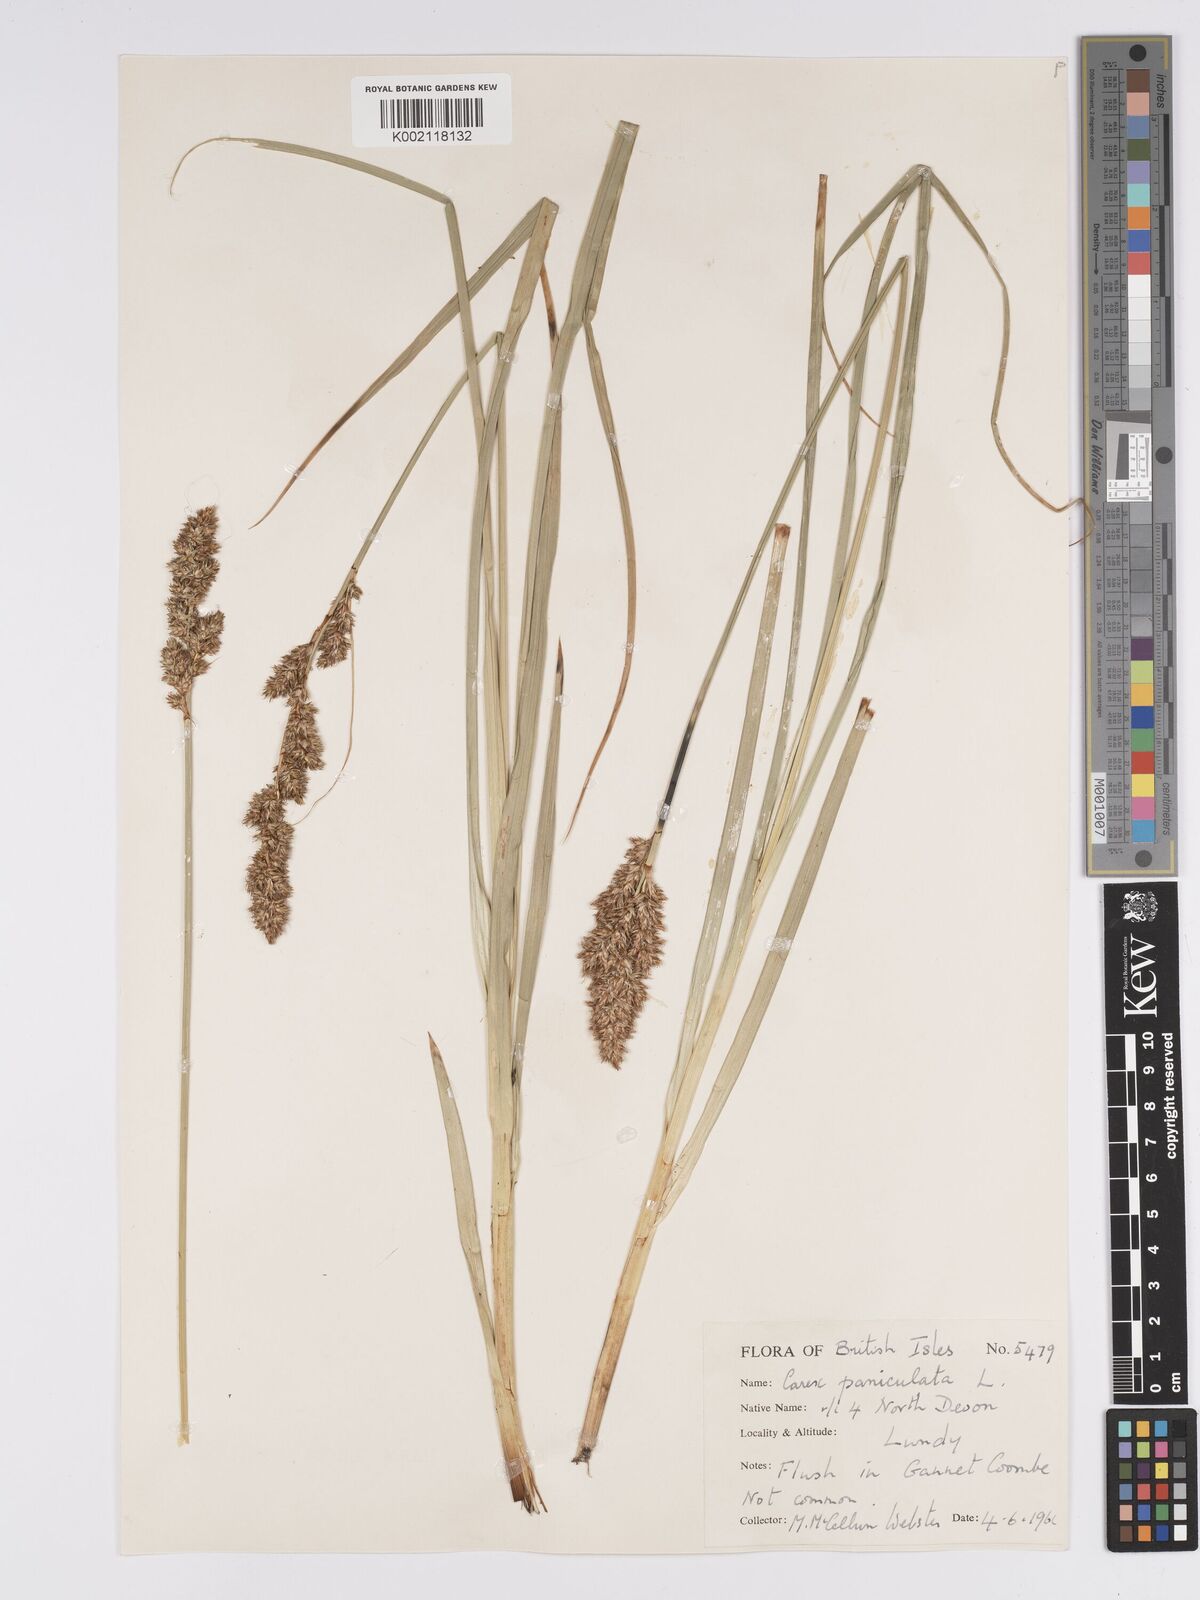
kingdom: Plantae
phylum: Tracheophyta
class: Liliopsida
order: Poales
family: Cyperaceae
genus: Carex
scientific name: Carex paniculata
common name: Greater tussock-sedge
